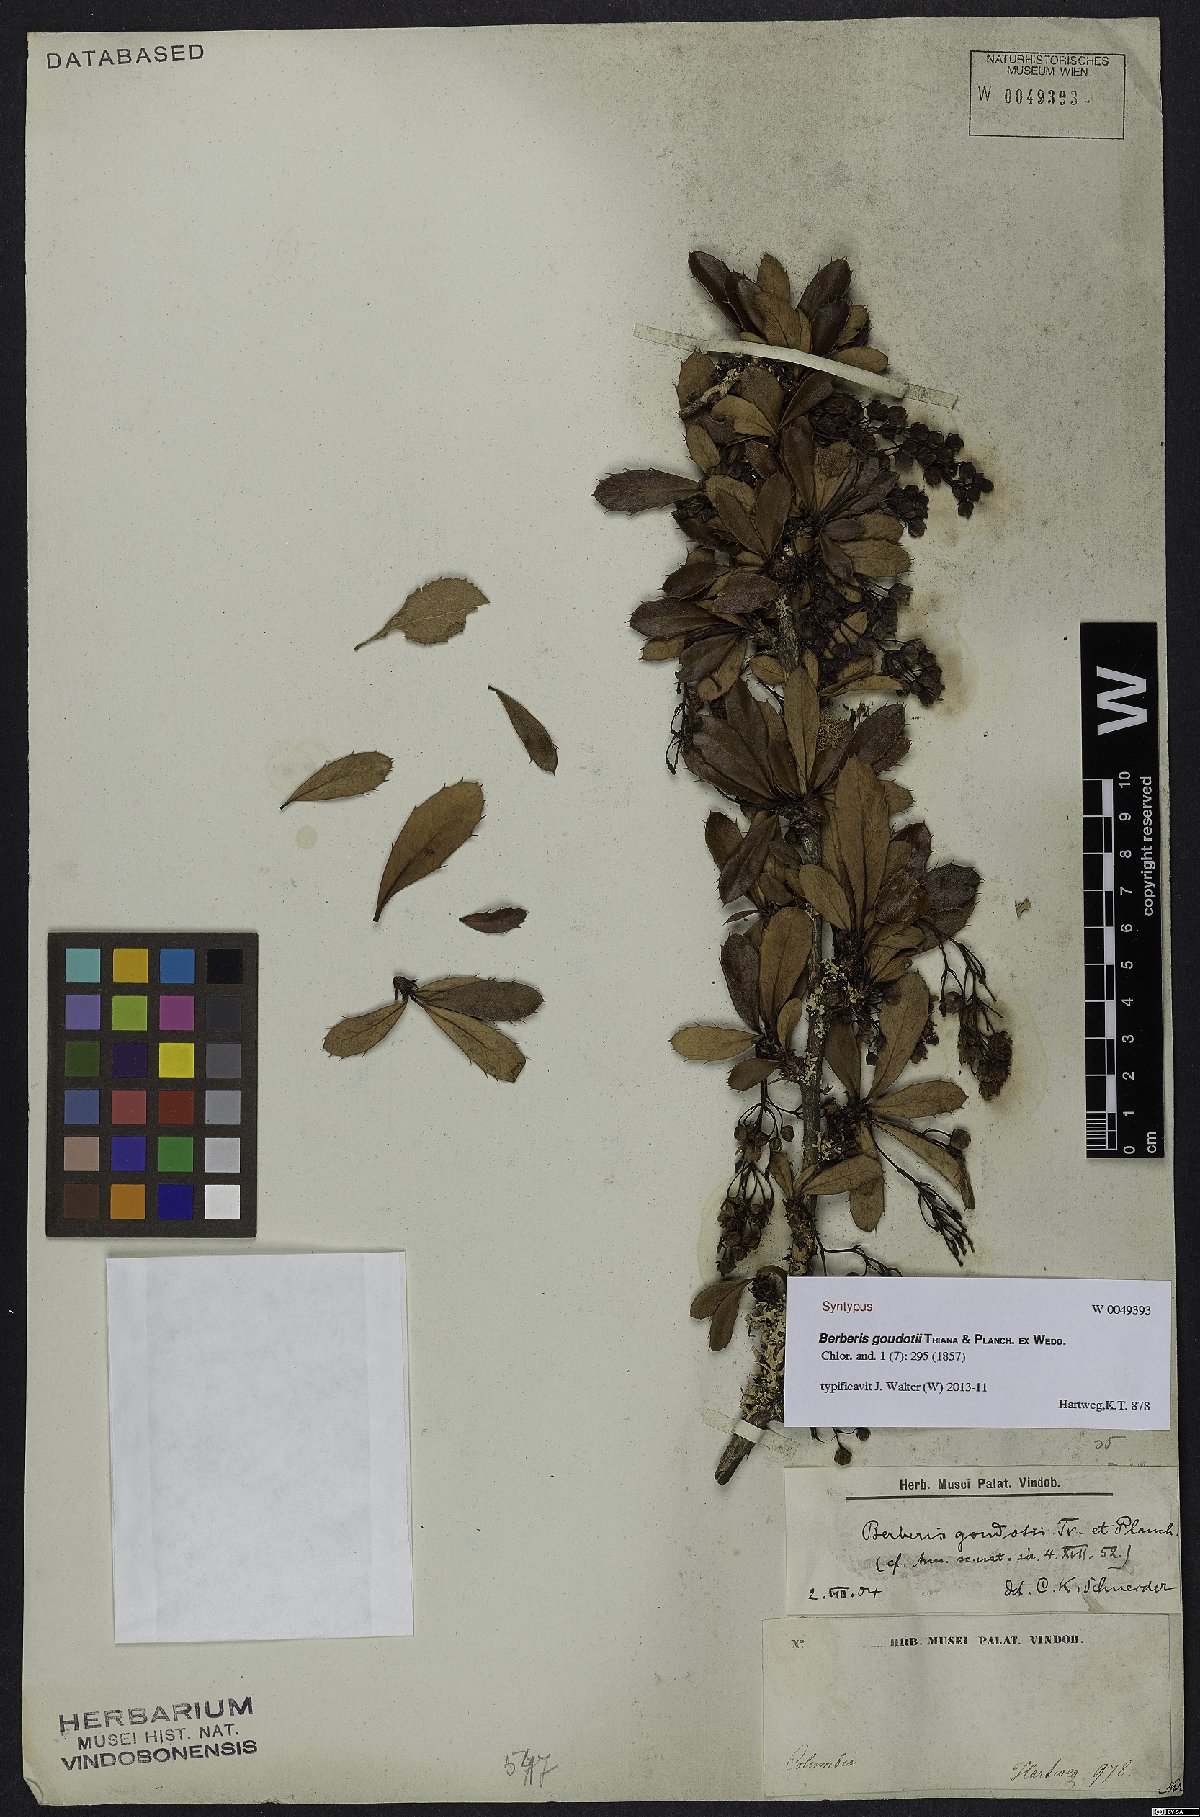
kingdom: Plantae
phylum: Tracheophyta
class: Magnoliopsida
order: Ranunculales
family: Berberidaceae
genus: Berberis
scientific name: Berberis goudotii
